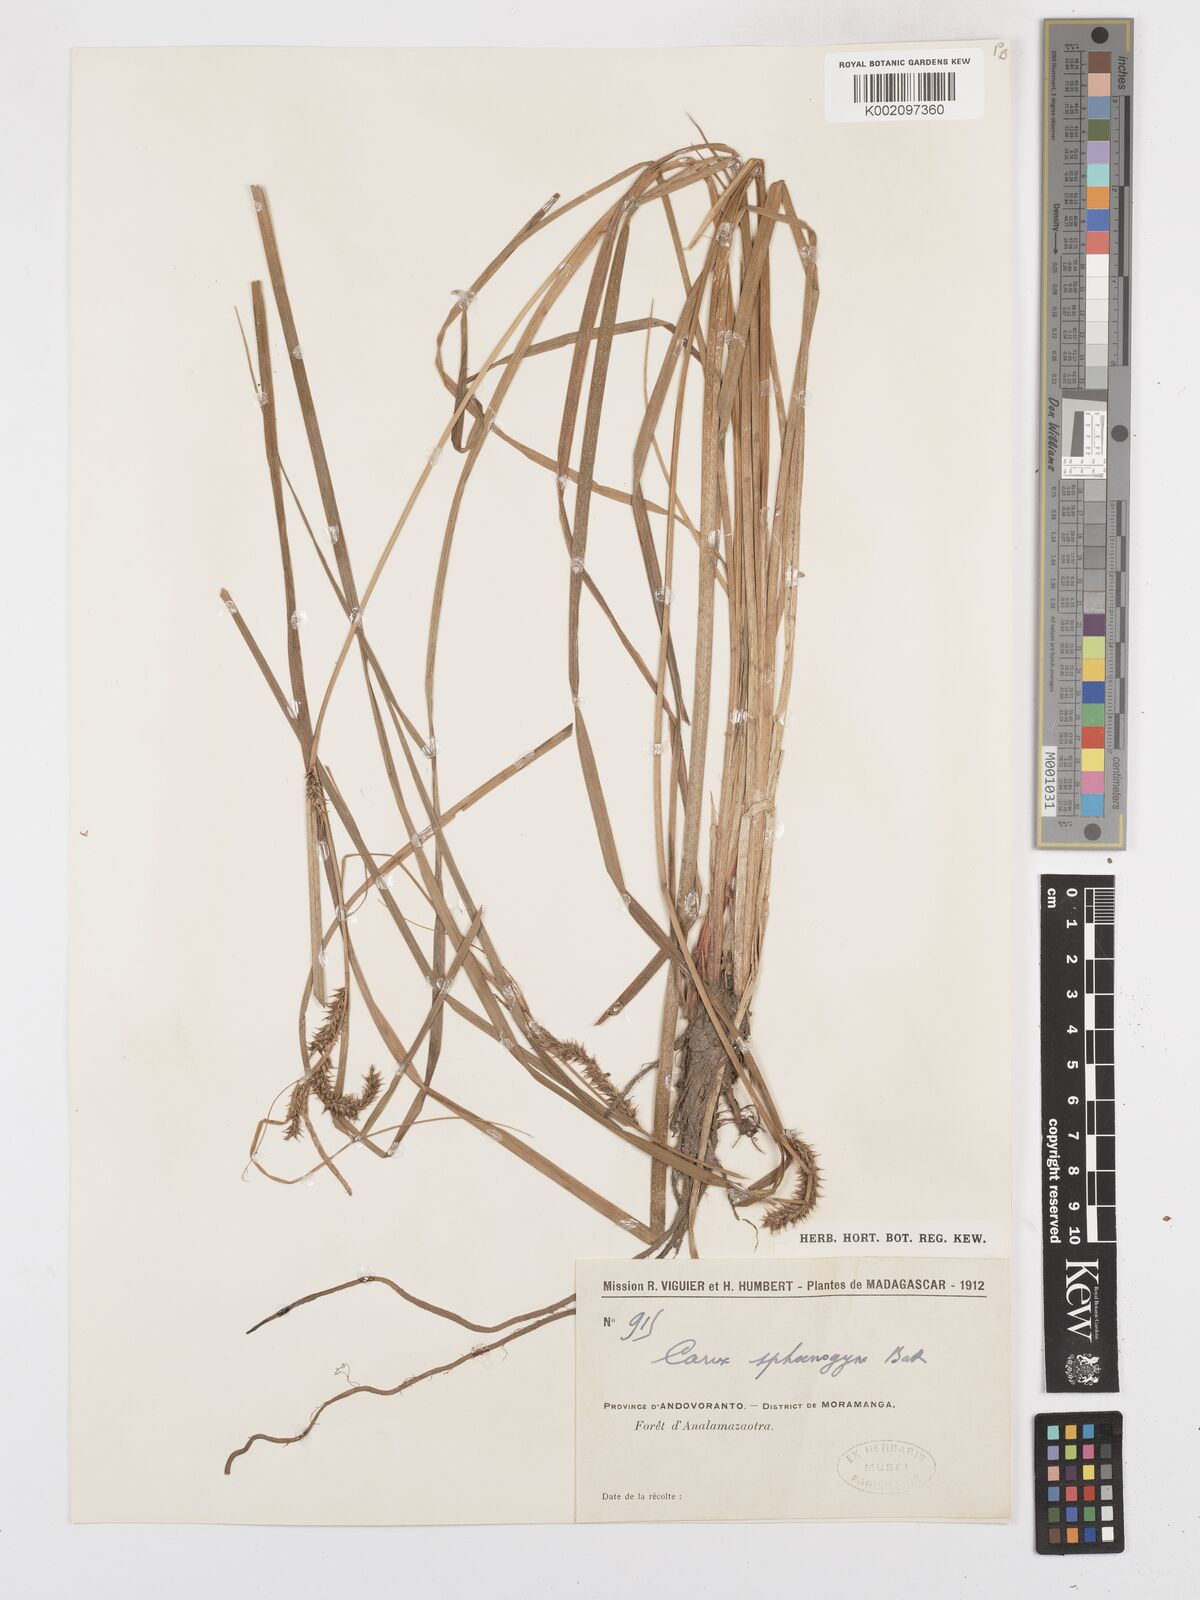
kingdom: Plantae
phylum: Tracheophyta
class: Liliopsida
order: Poales
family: Cyperaceae
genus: Carex
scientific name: Carex sphaerogyna
